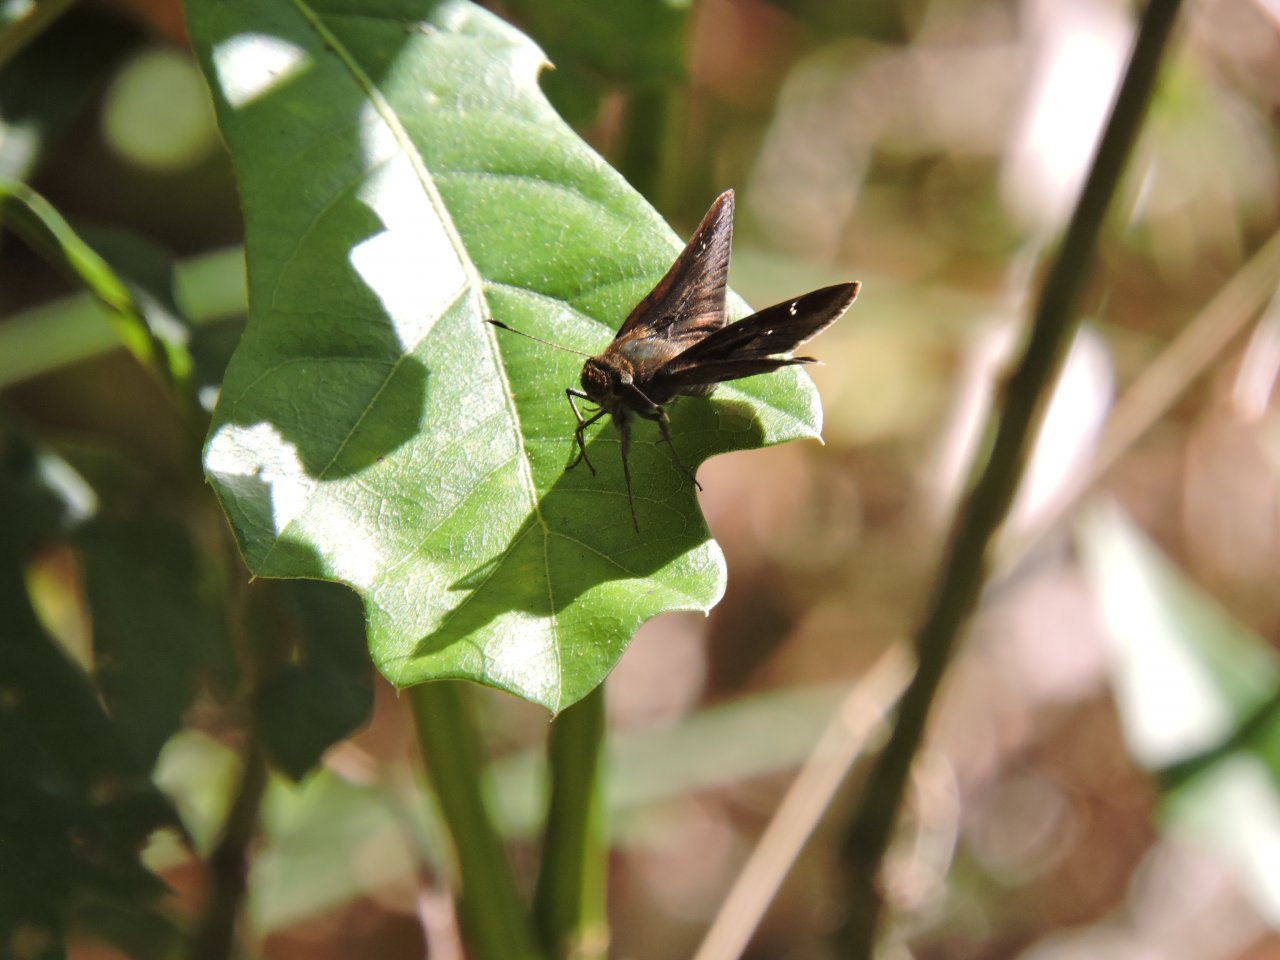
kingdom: Animalia
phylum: Arthropoda
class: Insecta
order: Lepidoptera
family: Hesperiidae
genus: Lerema
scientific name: Lerema accius
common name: Clouded Skipper
